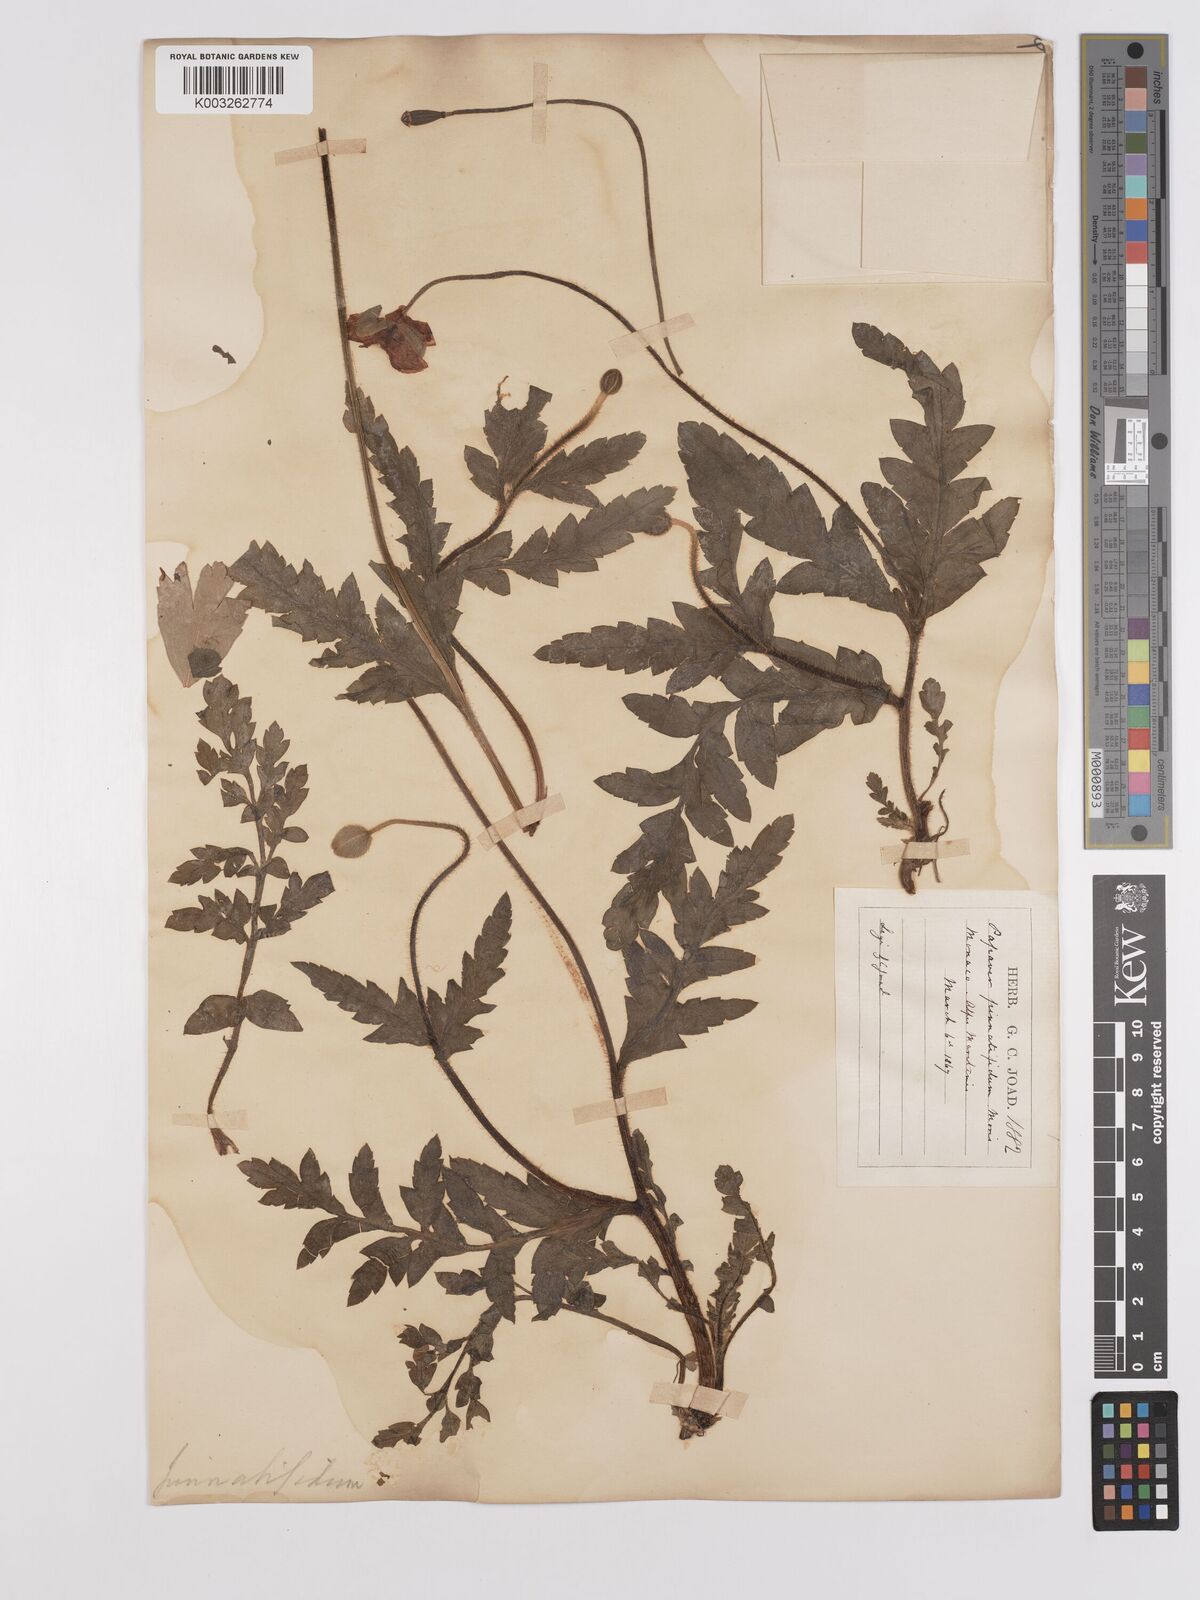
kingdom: Plantae
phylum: Tracheophyta
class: Magnoliopsida
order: Ranunculales
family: Papaveraceae
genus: Papaver
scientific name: Papaver pinnatifidum
